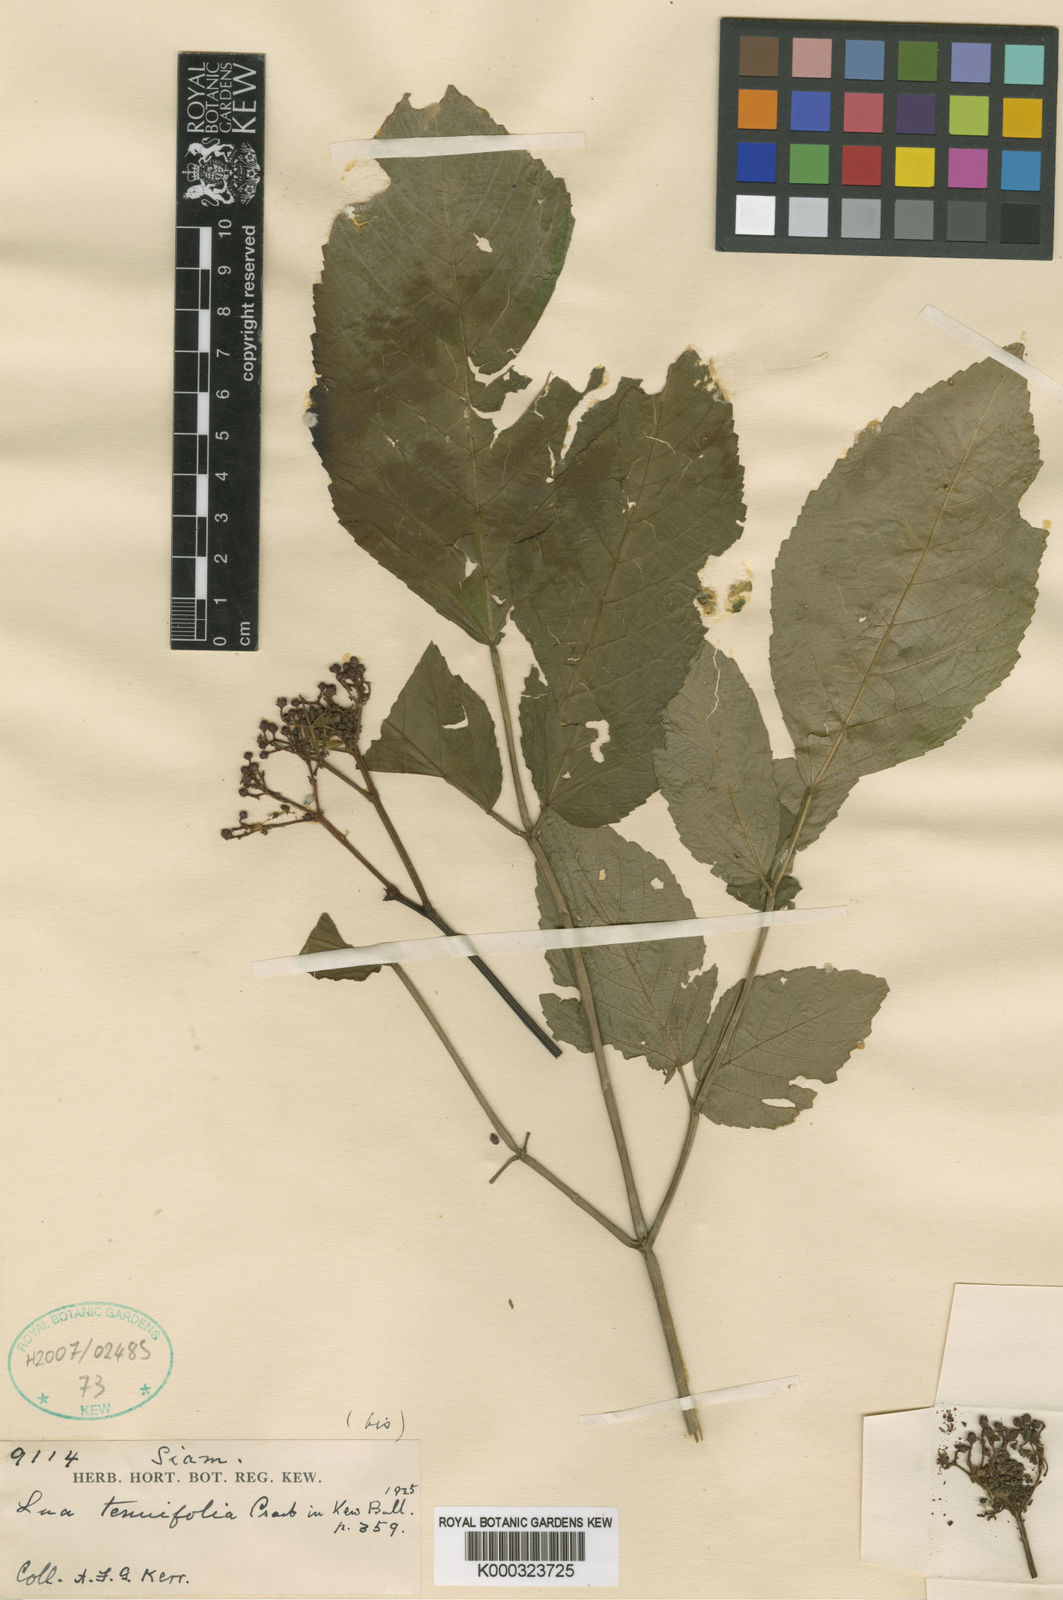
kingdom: Plantae
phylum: Tracheophyta
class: Magnoliopsida
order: Vitales
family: Vitaceae
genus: Leea
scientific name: Leea setuligera
